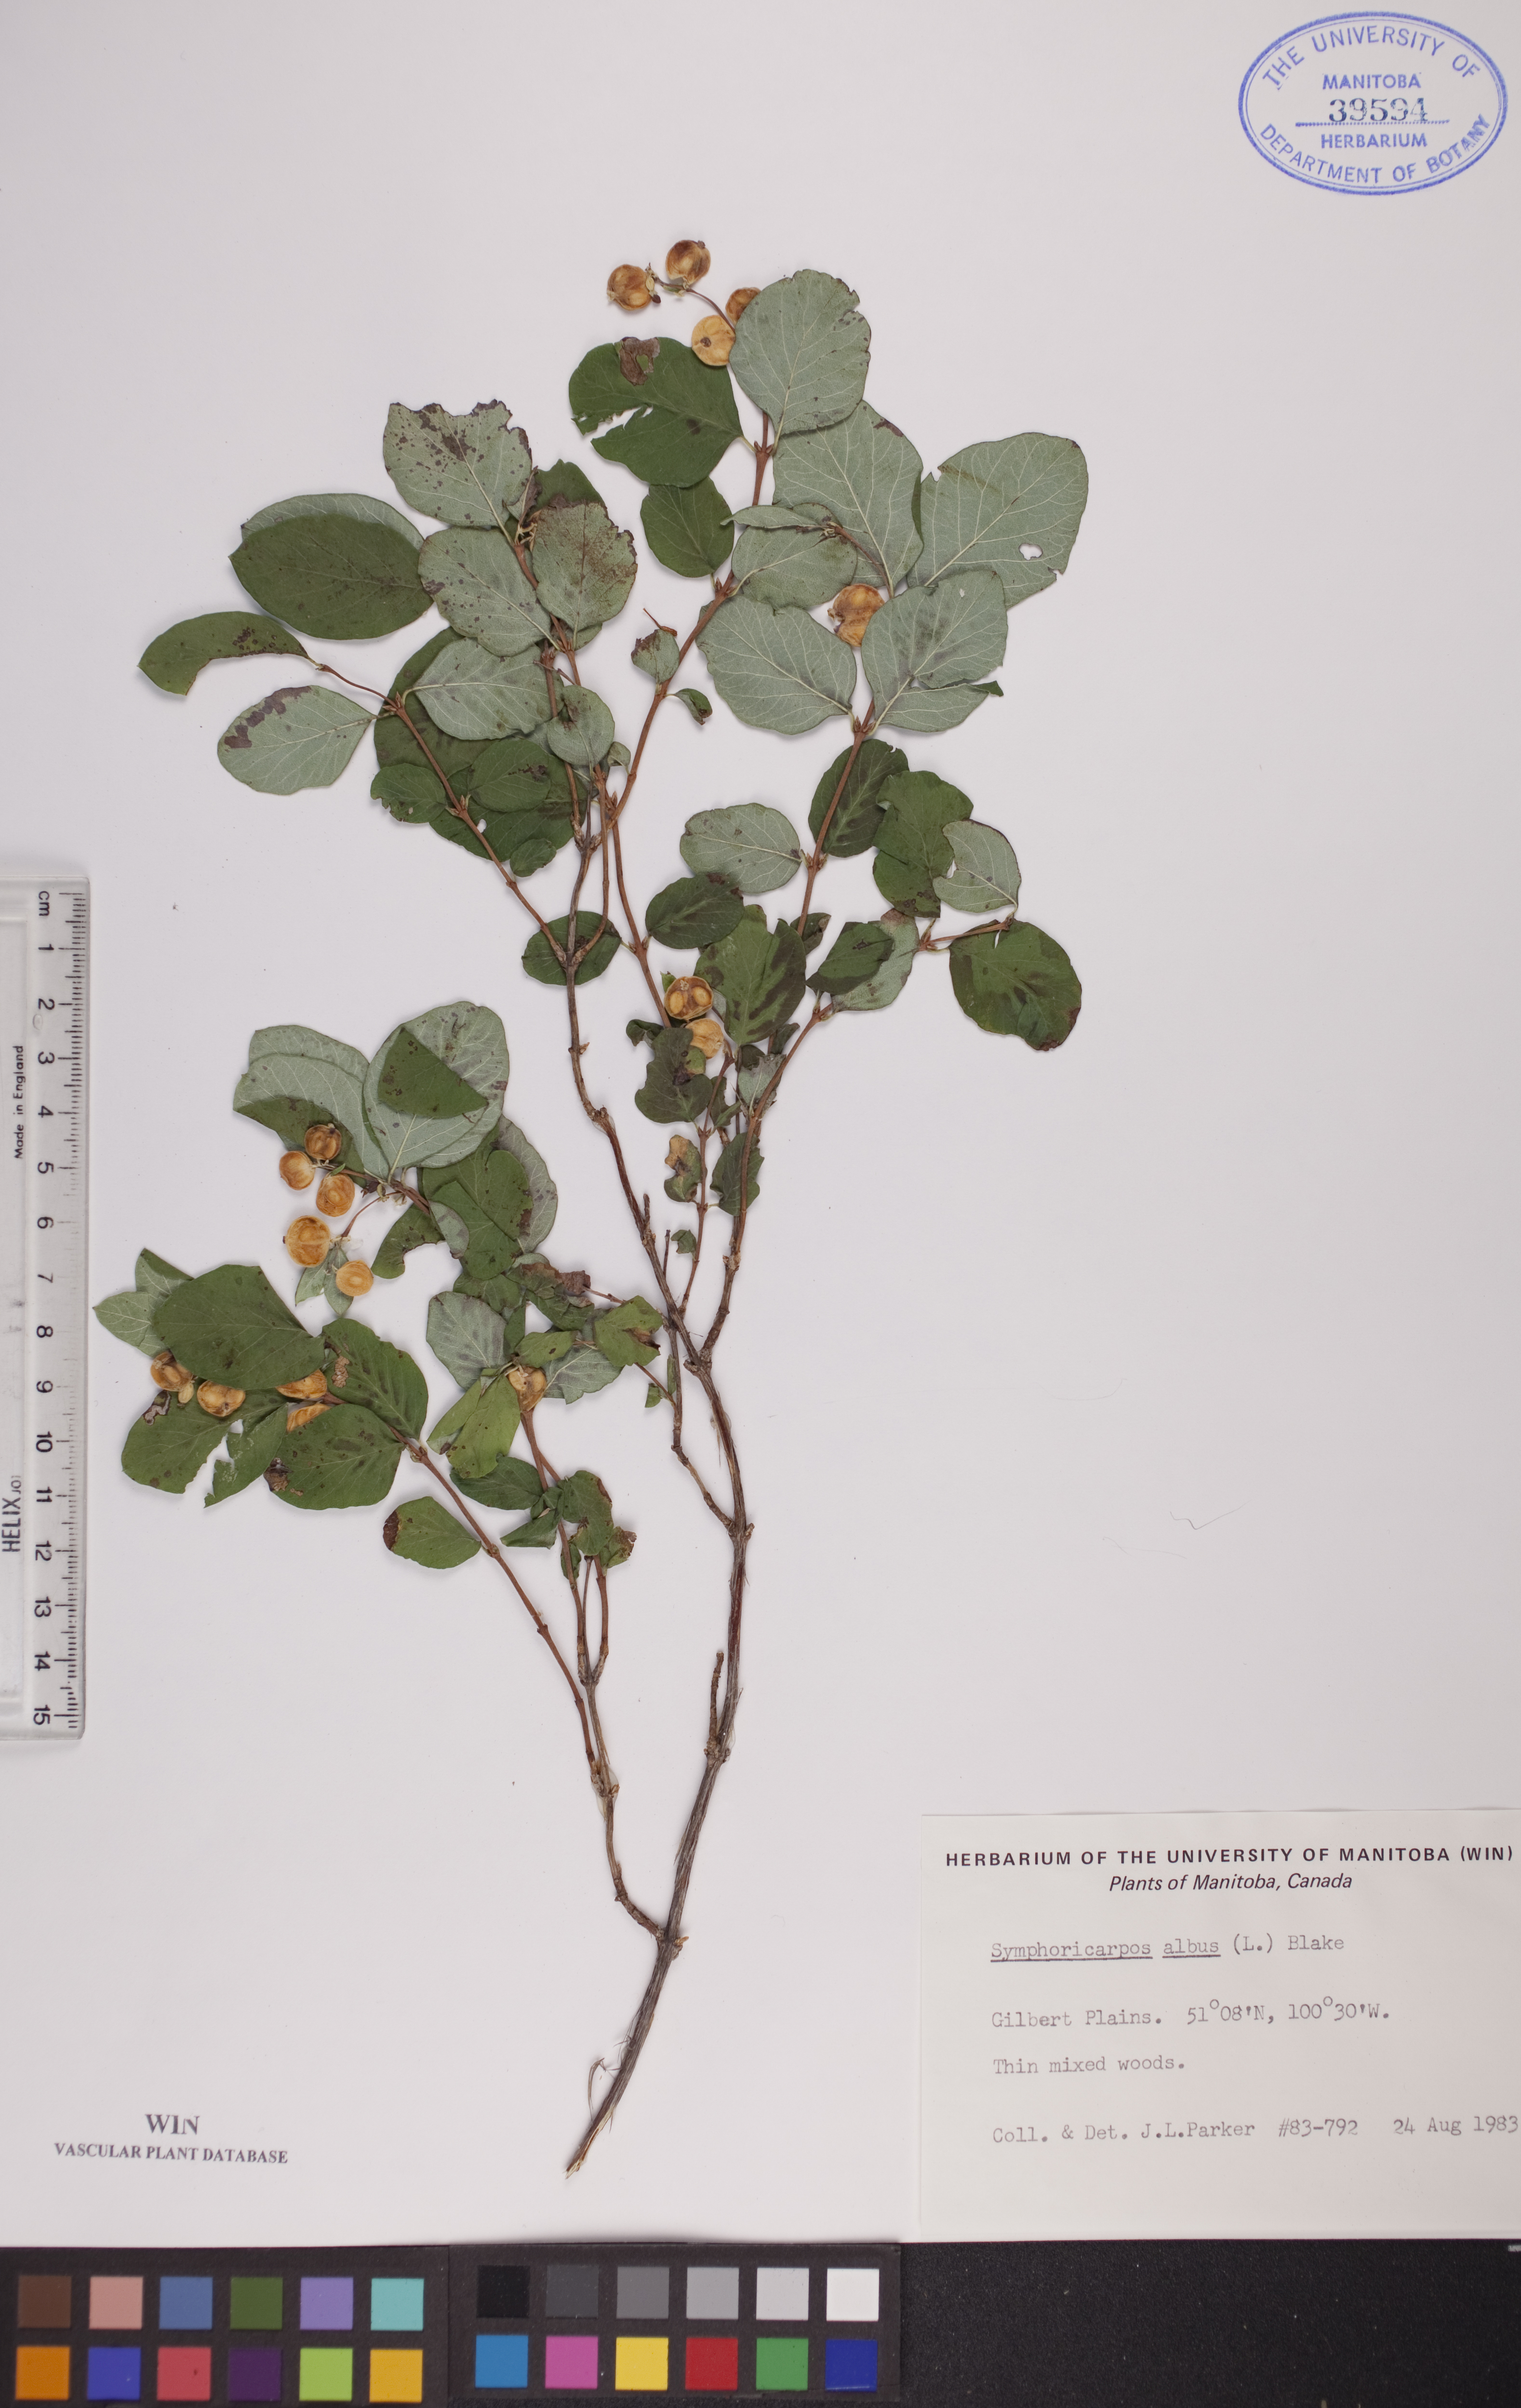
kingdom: Plantae
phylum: Tracheophyta
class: Magnoliopsida
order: Dipsacales
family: Caprifoliaceae
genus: Symphoricarpos
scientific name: Symphoricarpos albus
